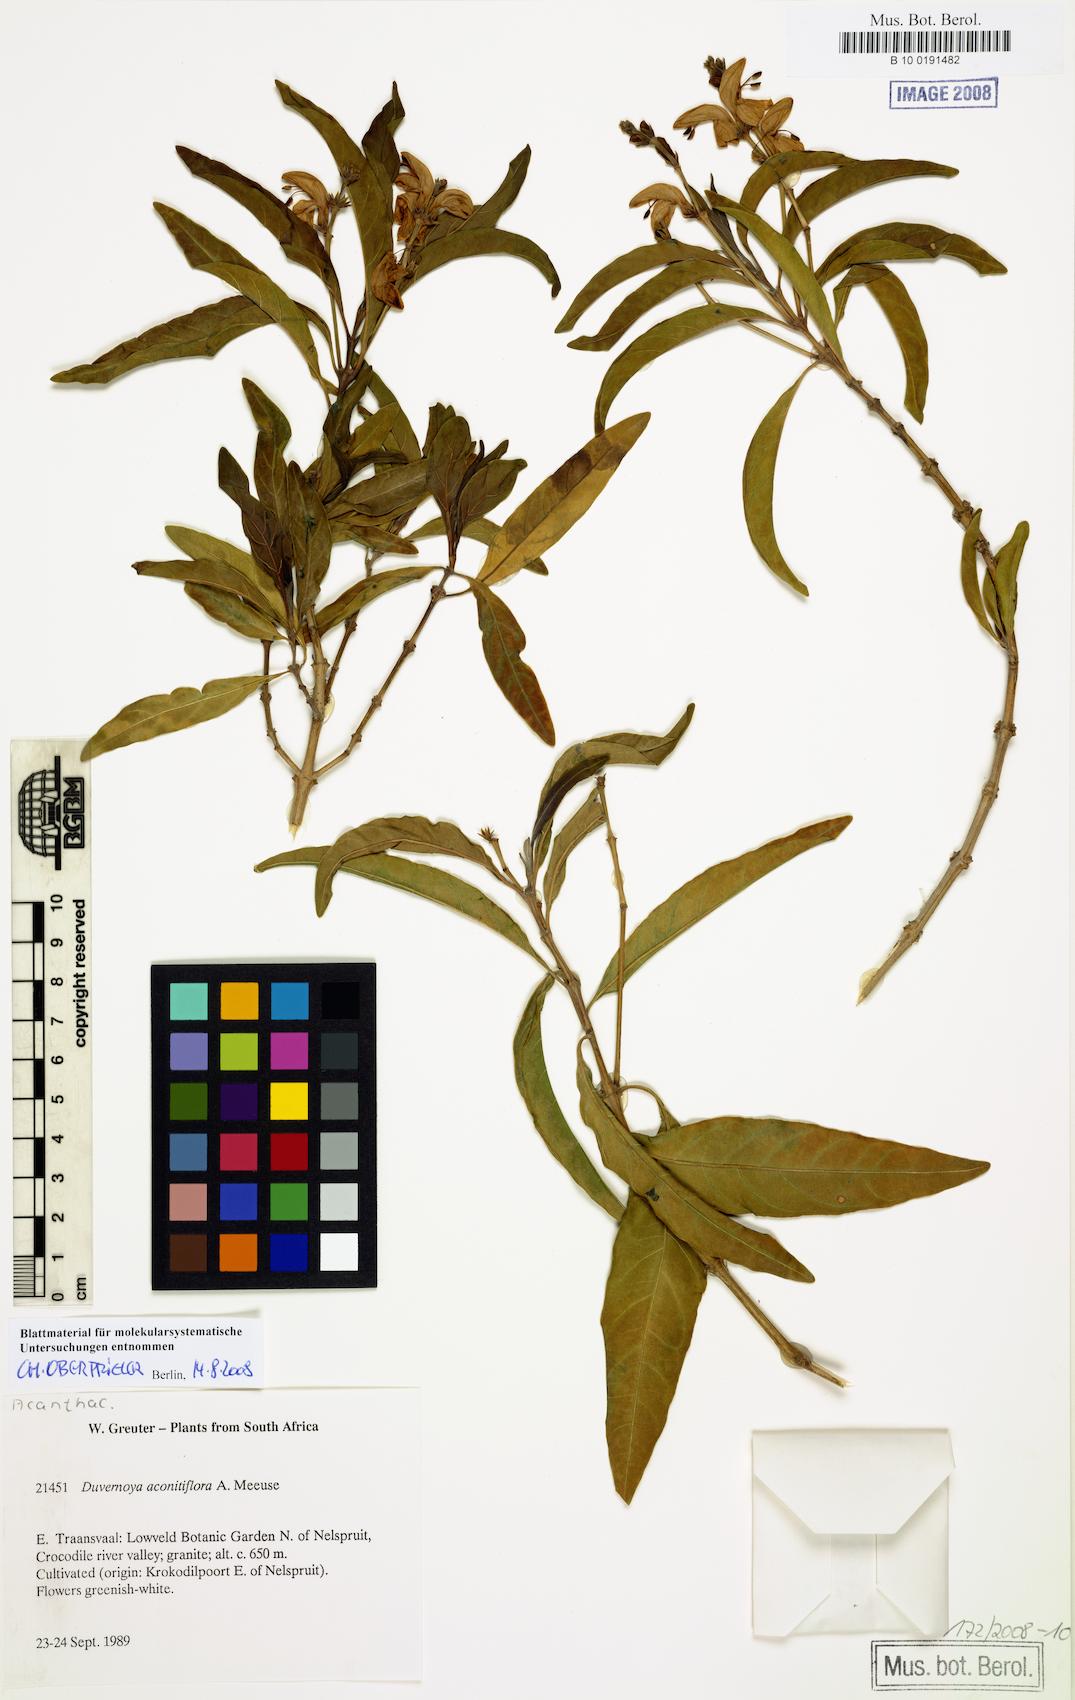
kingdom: Plantae
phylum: Tracheophyta
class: Magnoliopsida
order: Lamiales
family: Acanthaceae
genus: Justicia
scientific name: Justicia aconitiflora
